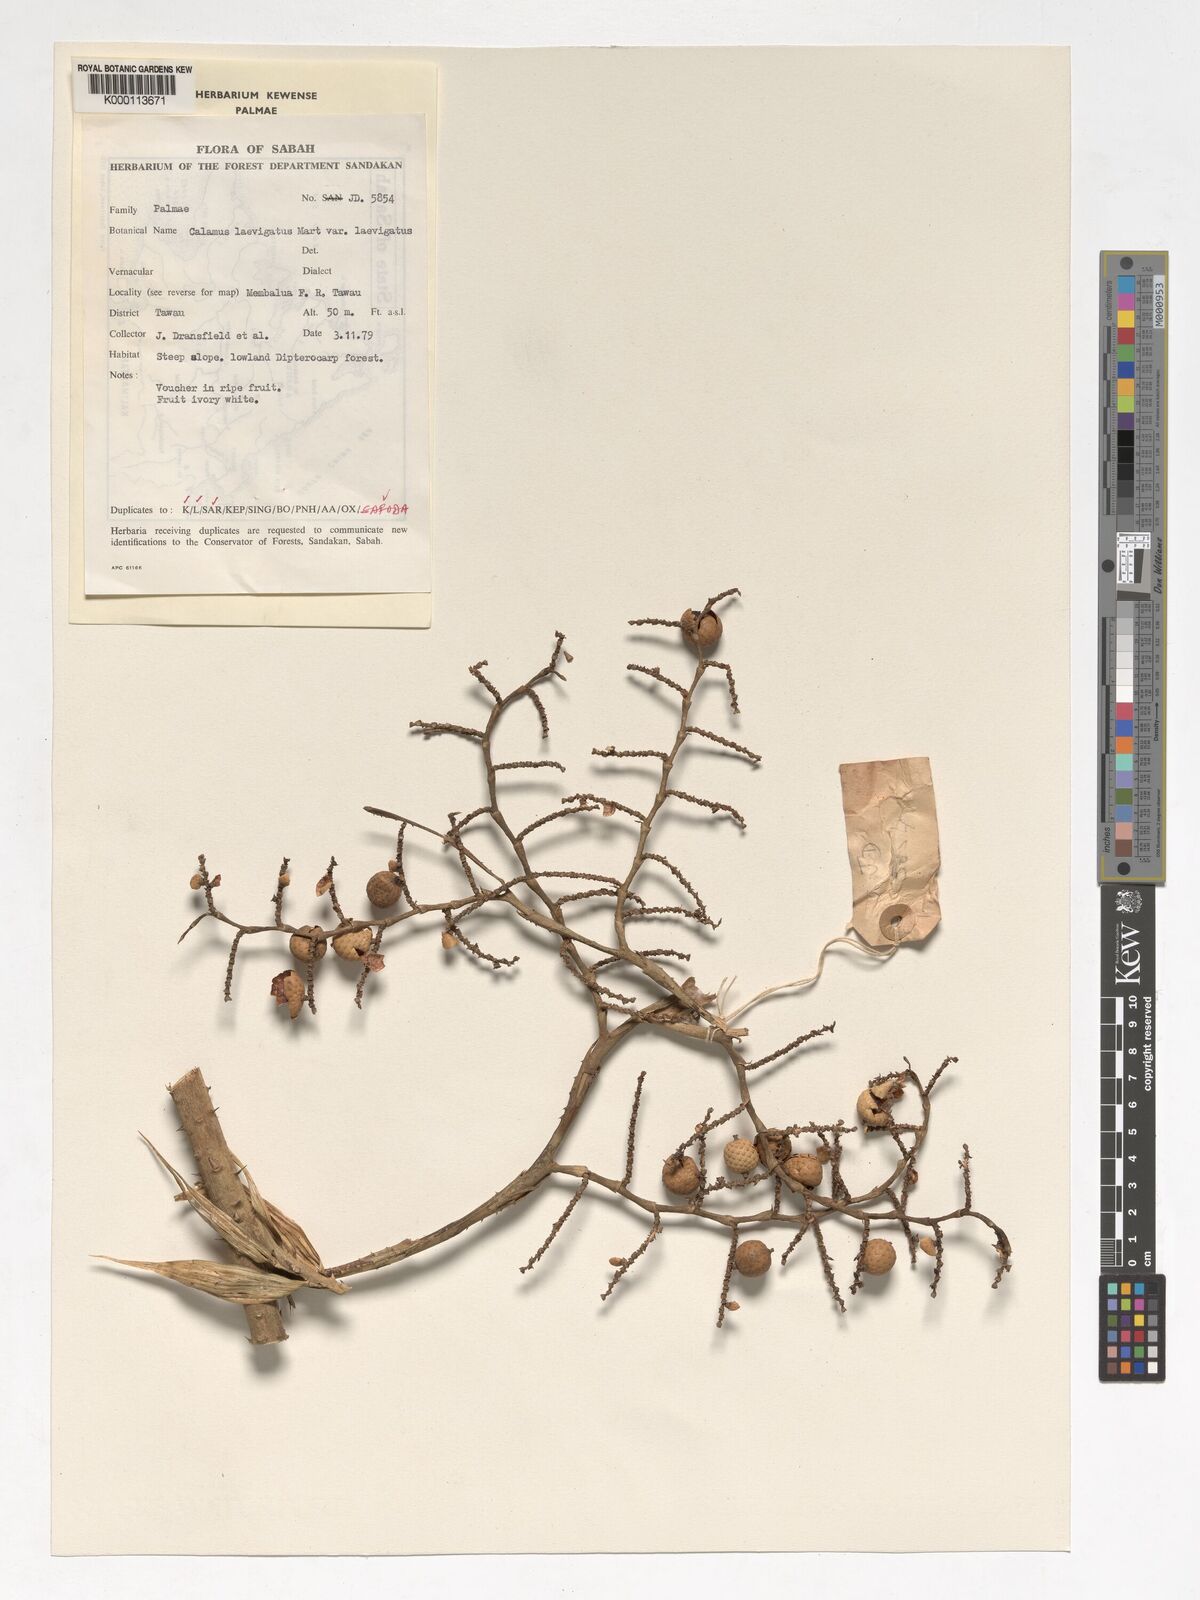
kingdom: Plantae
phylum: Tracheophyta
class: Liliopsida
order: Arecales
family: Arecaceae
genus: Calamus
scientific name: Calamus
